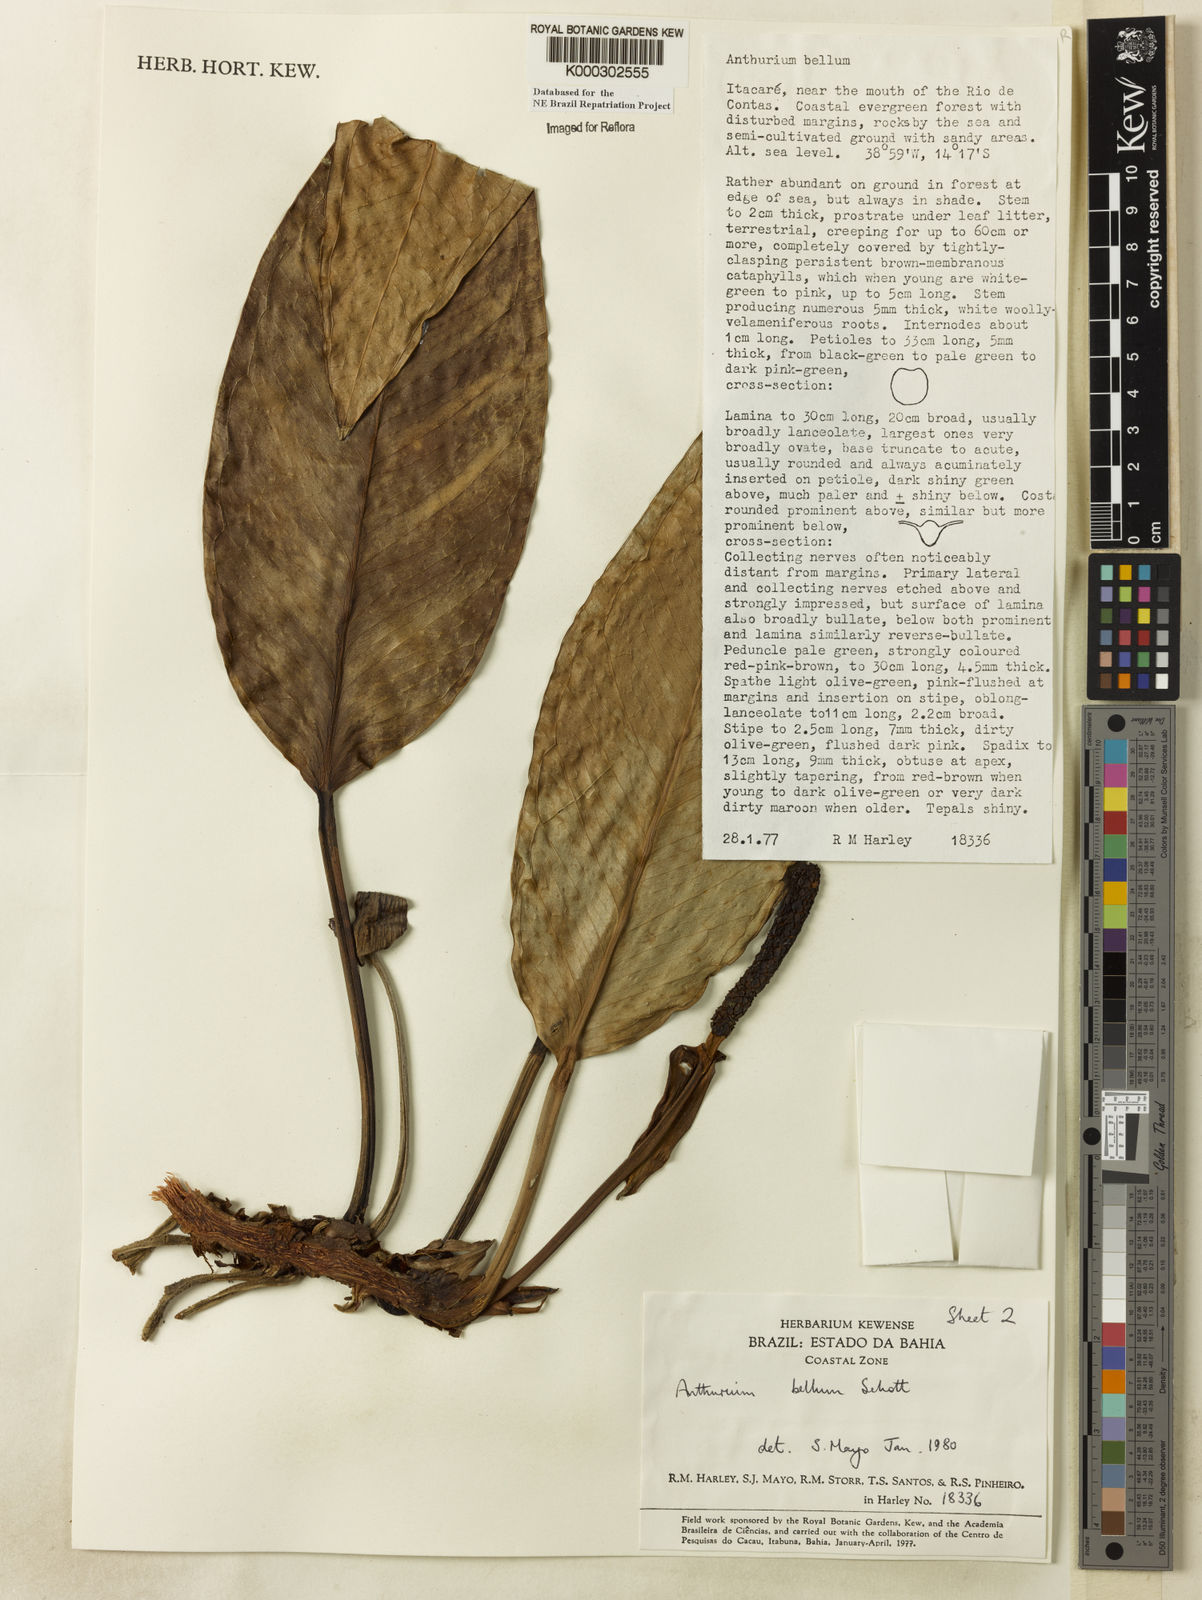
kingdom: Plantae
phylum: Tracheophyta
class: Liliopsida
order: Alismatales
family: Araceae
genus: Anthurium
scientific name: Anthurium bellum
